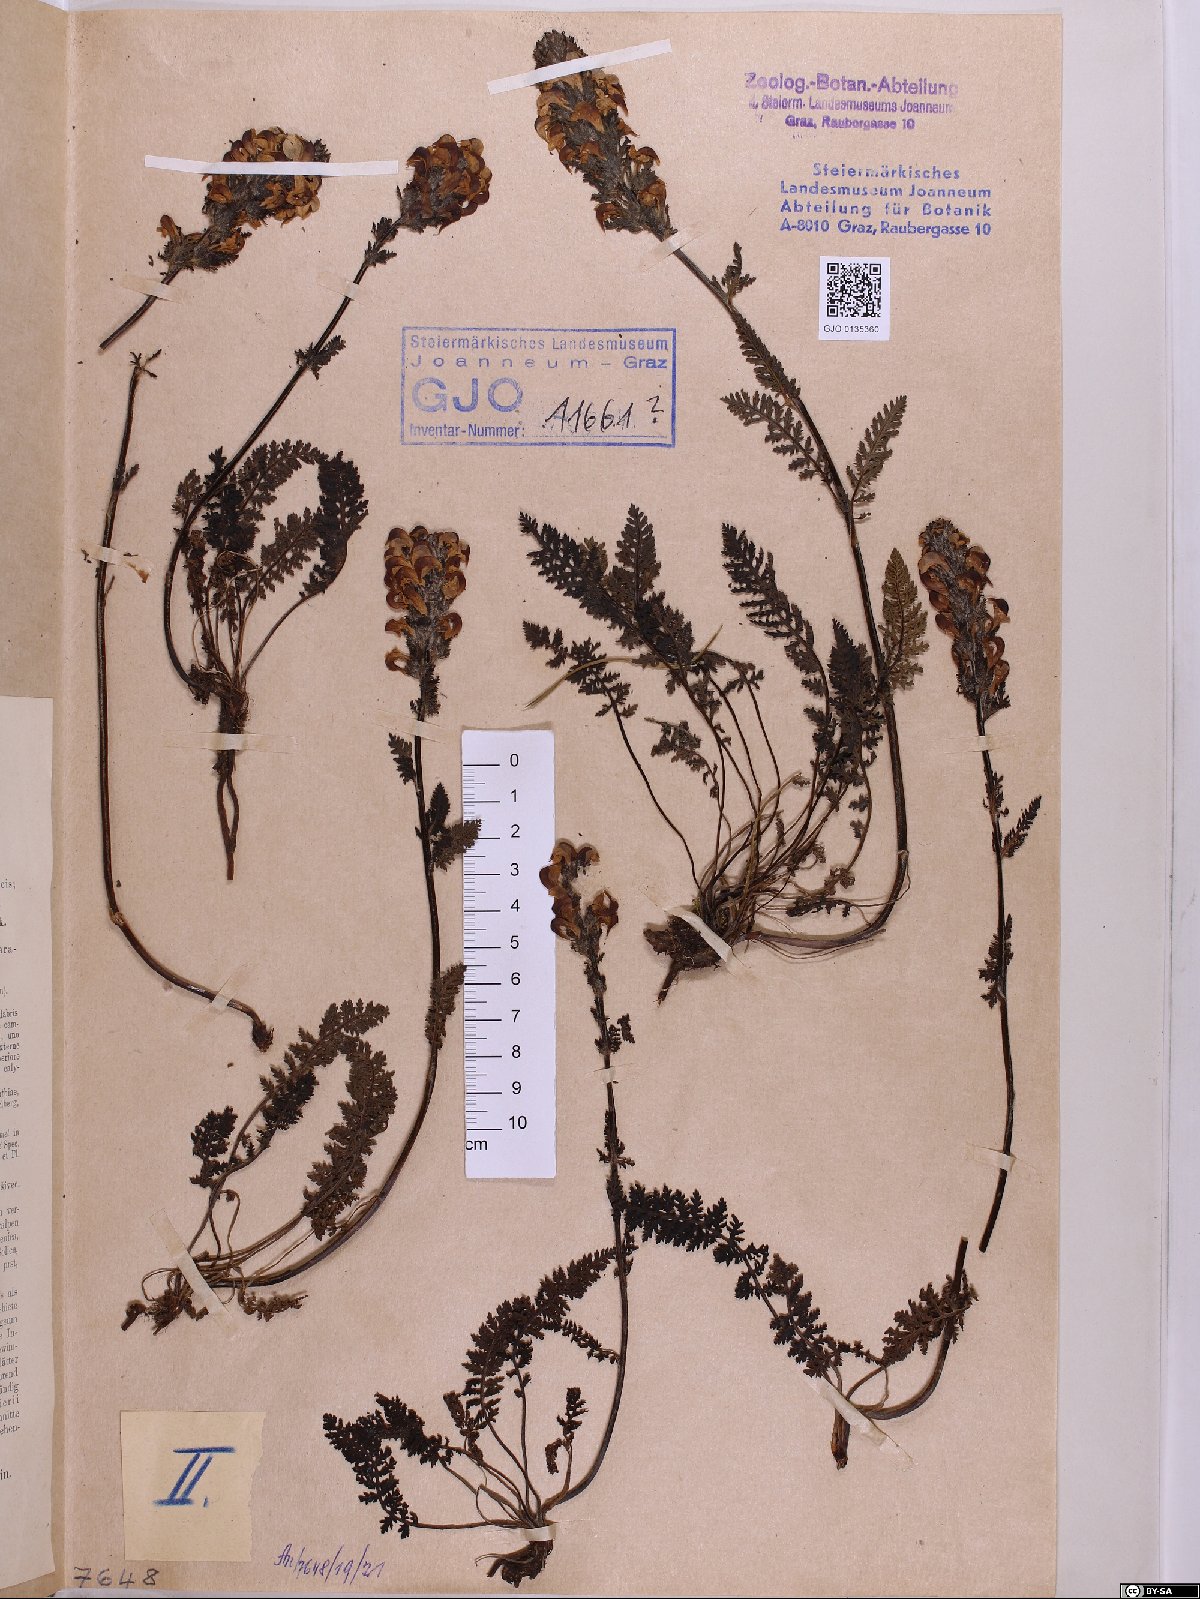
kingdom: Plantae
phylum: Tracheophyta
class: Magnoliopsida
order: Lamiales
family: Orobanchaceae
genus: Pedicularis
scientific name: Pedicularis elongata
